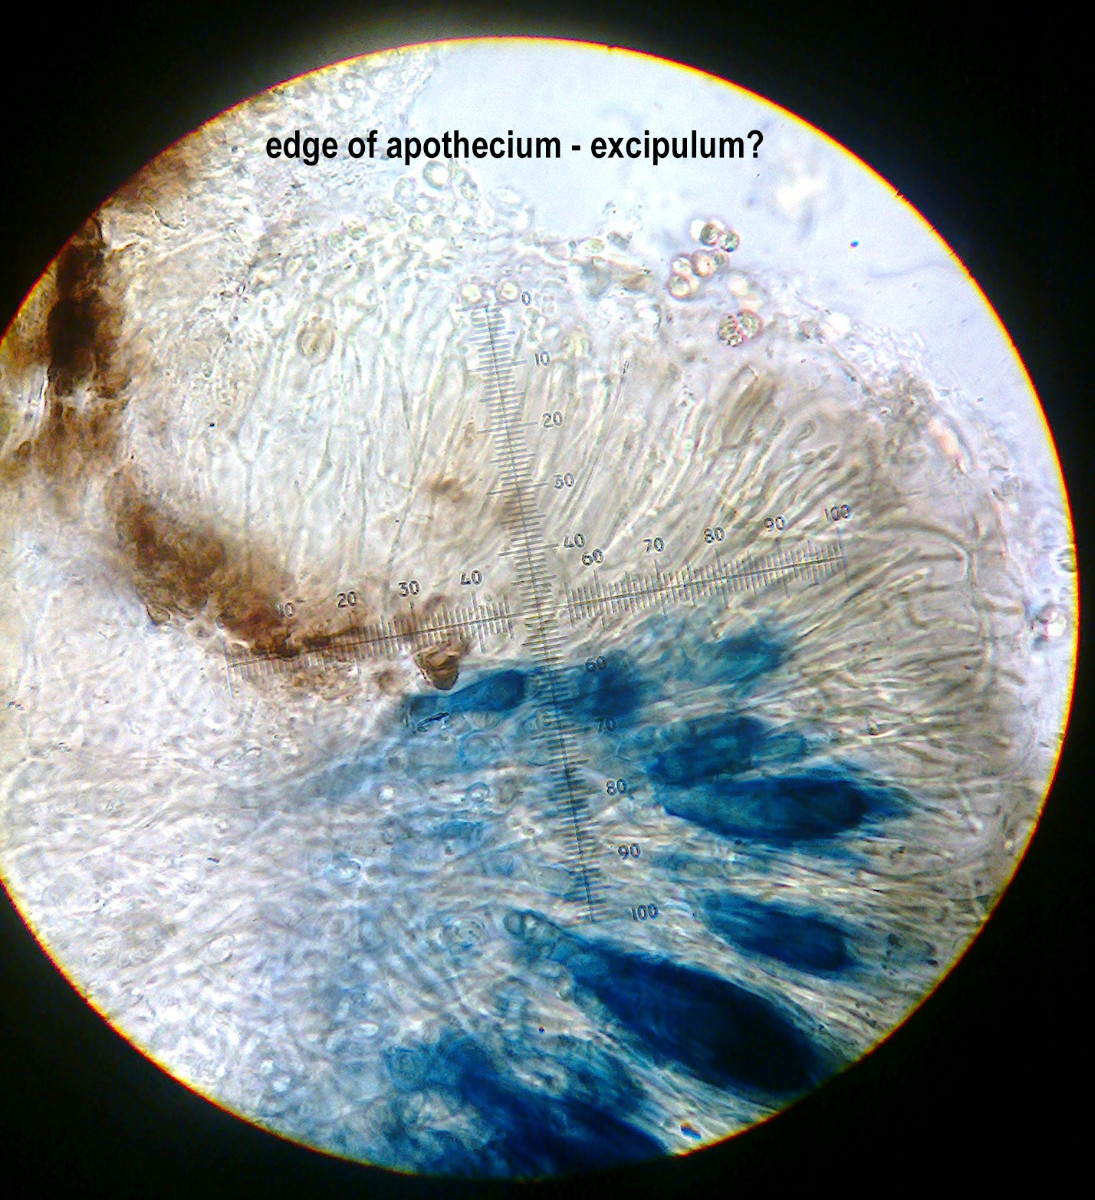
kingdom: Fungi
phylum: Ascomycota
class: Lecanoromycetes
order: Lecanorales
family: Byssolomataceae
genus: Micarea
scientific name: Micarea lignaria
